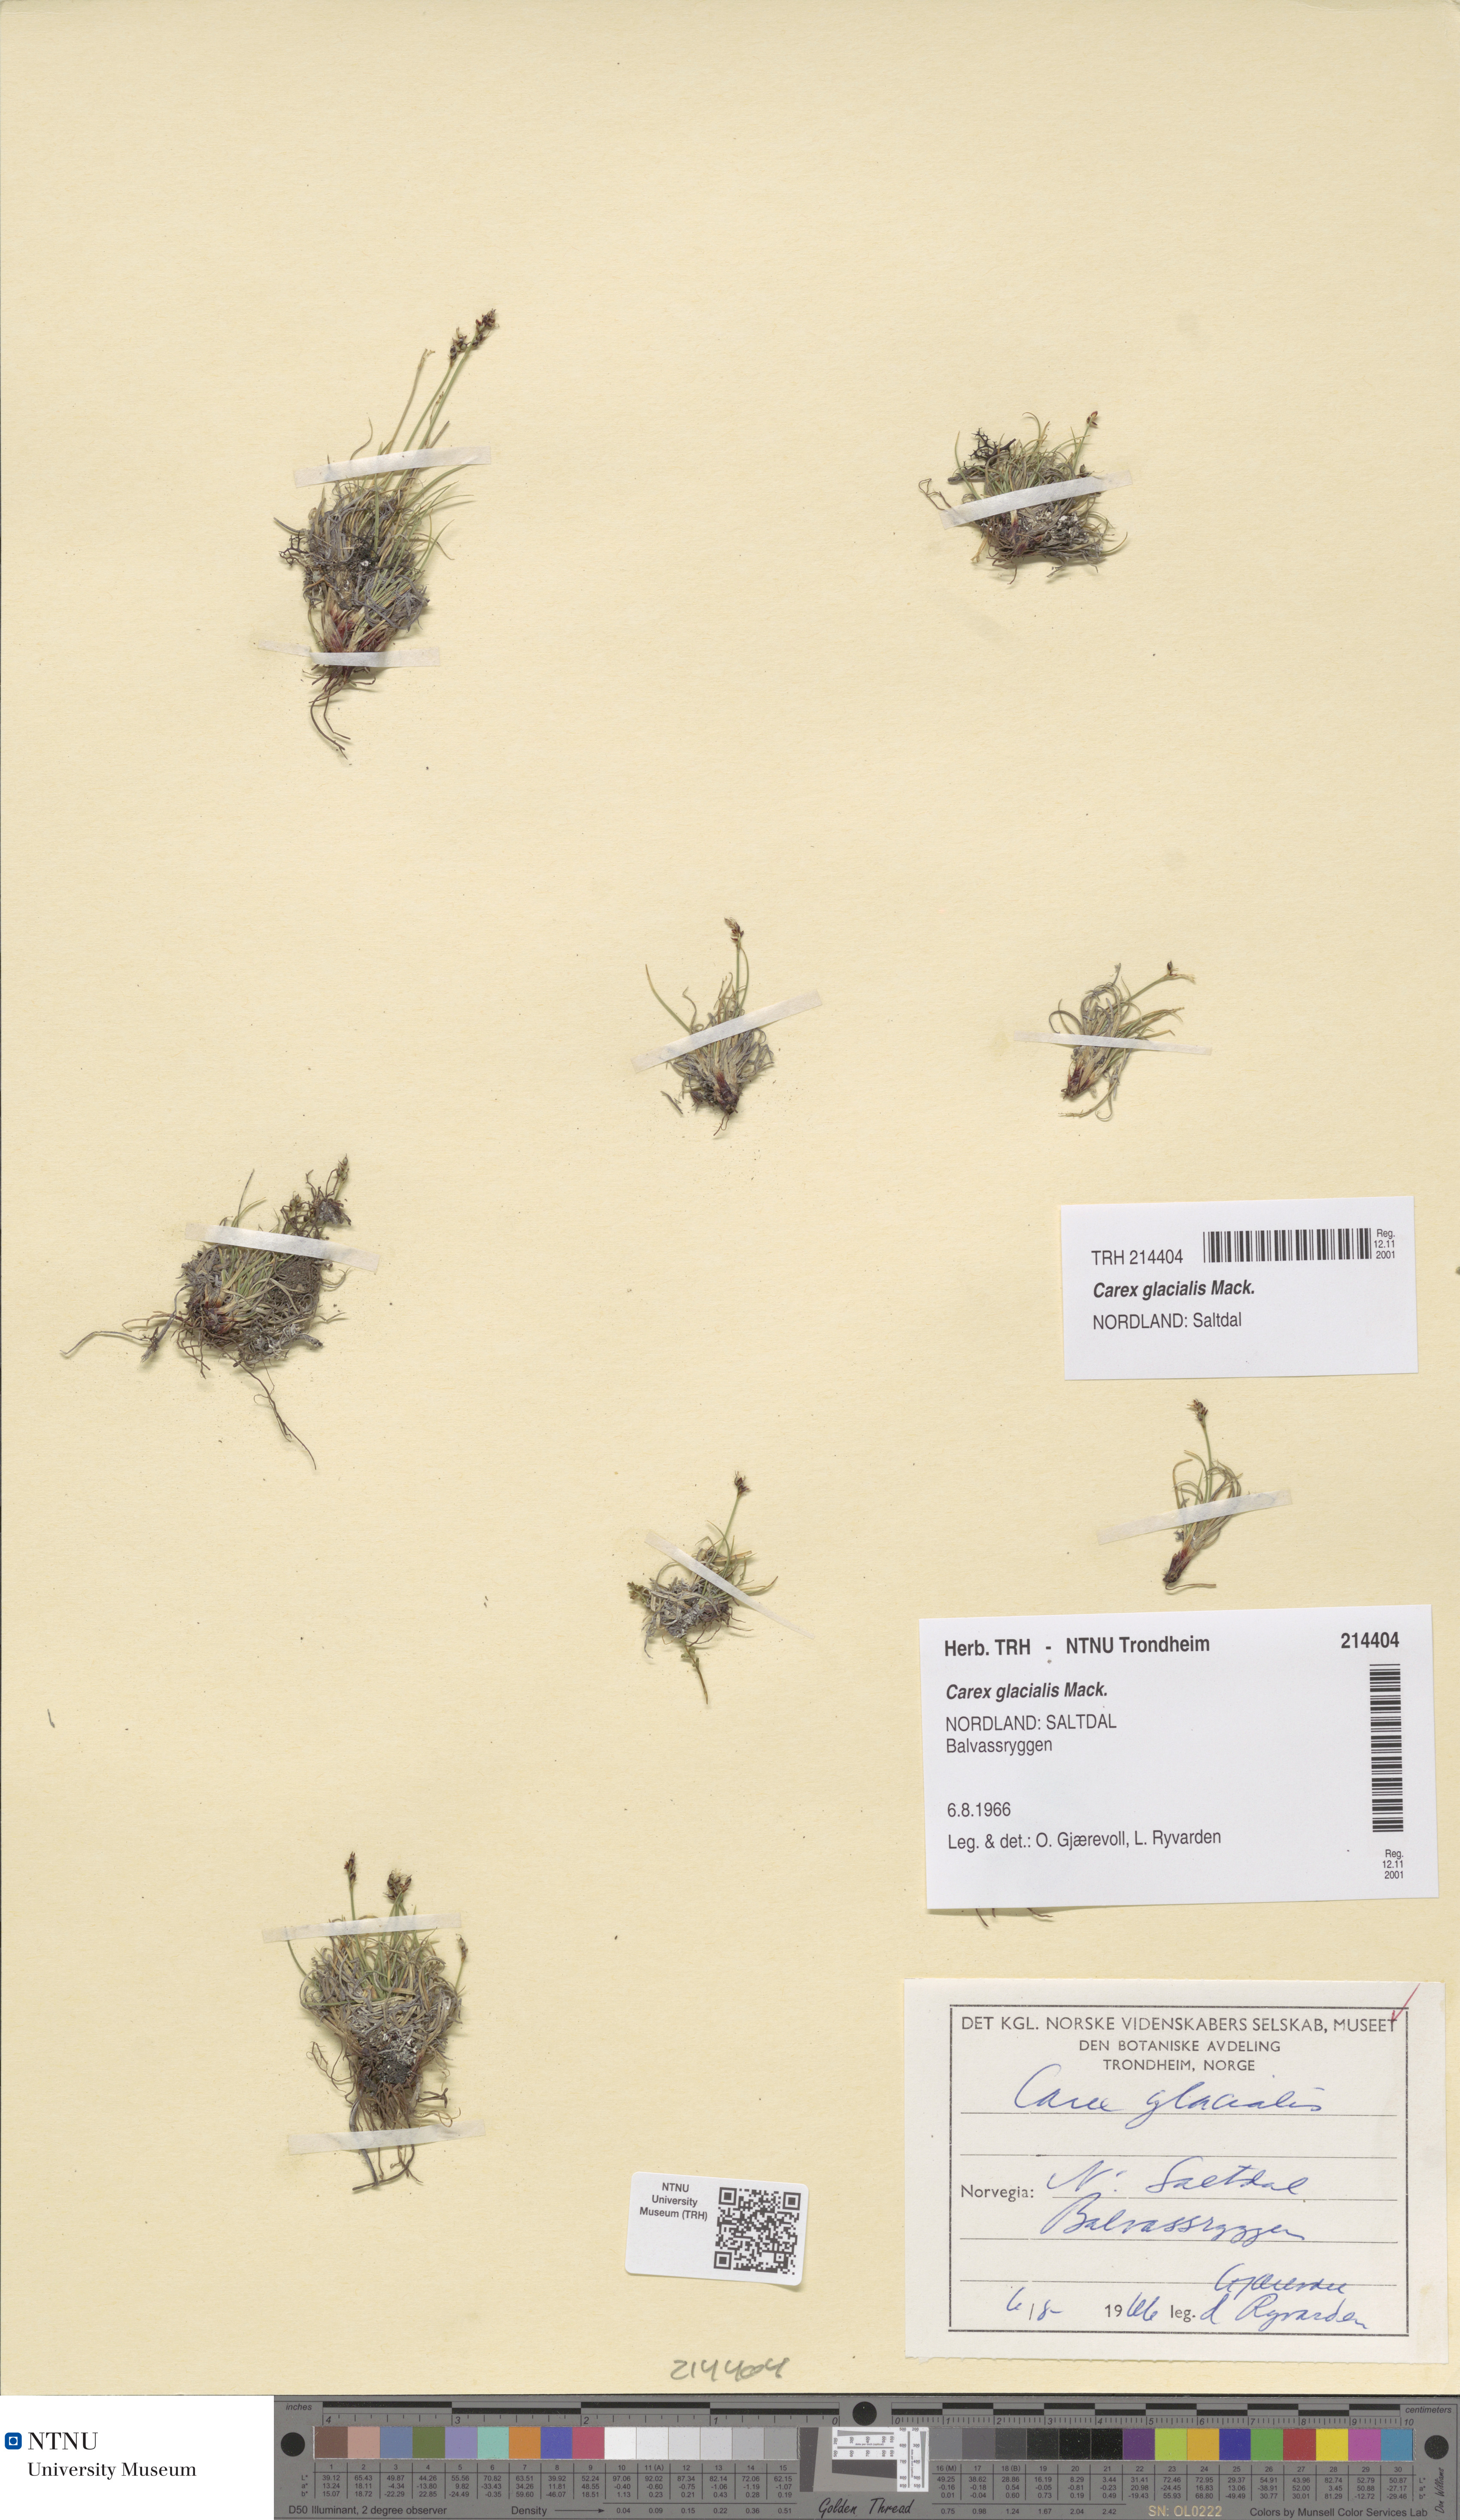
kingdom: Plantae
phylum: Tracheophyta
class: Liliopsida
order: Poales
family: Cyperaceae
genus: Carex
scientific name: Carex glacialis
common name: Newfoundland sedge
